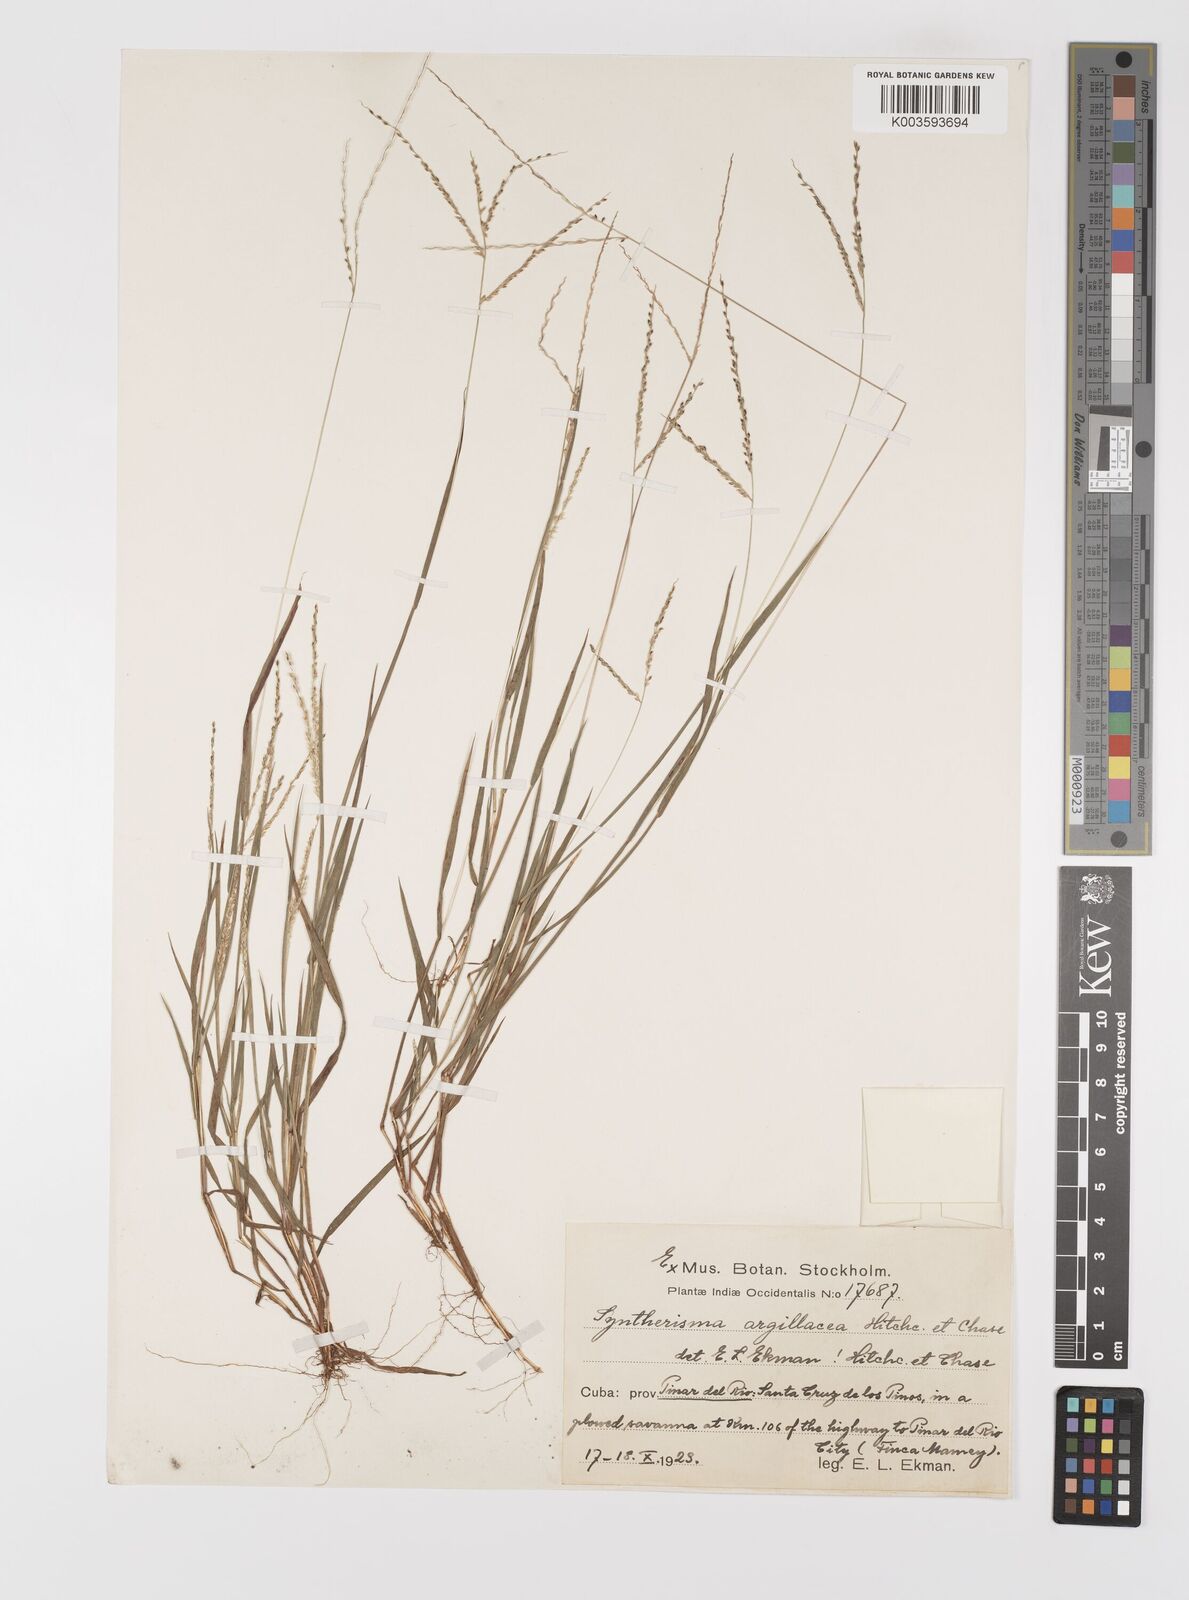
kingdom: Plantae
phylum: Tracheophyta
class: Liliopsida
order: Poales
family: Poaceae
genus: Digitaria
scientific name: Digitaria argillacea
